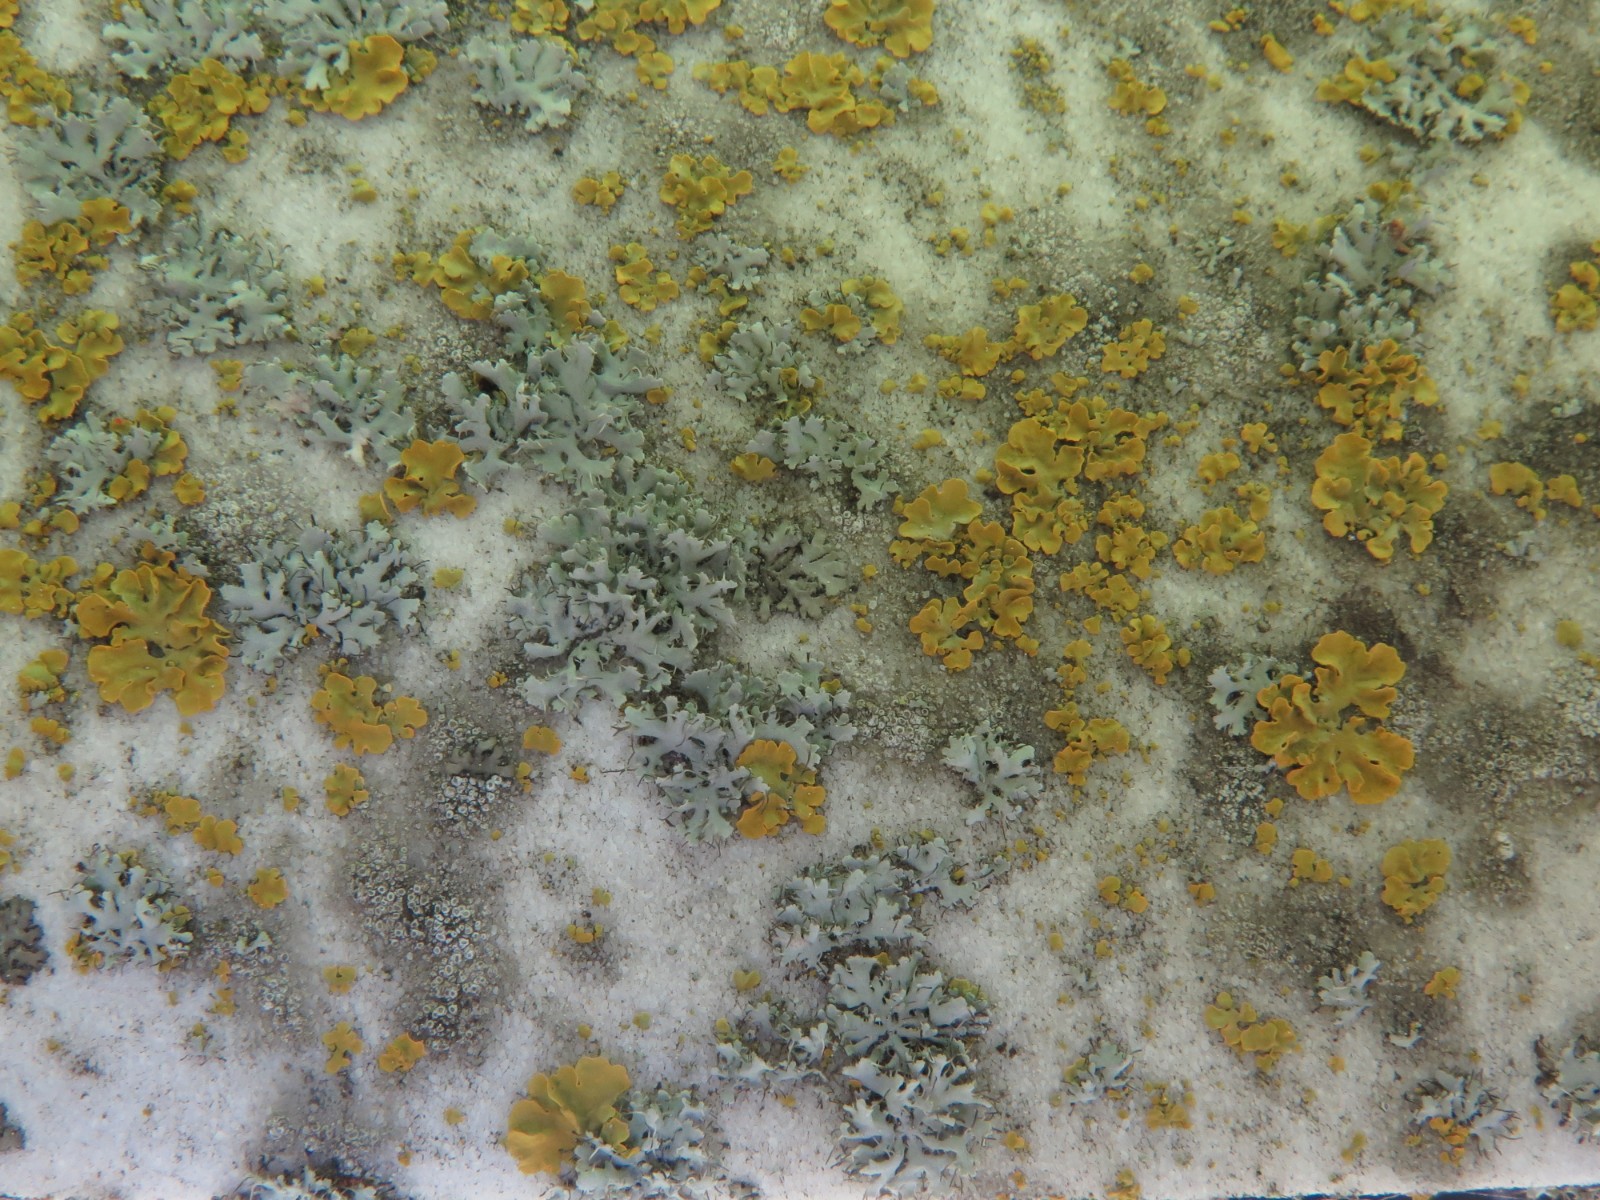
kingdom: Fungi
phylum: Ascomycota
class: Lecanoromycetes
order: Caliciales
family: Physciaceae
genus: Physcia
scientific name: Physcia tenella
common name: spæd rosetlav
